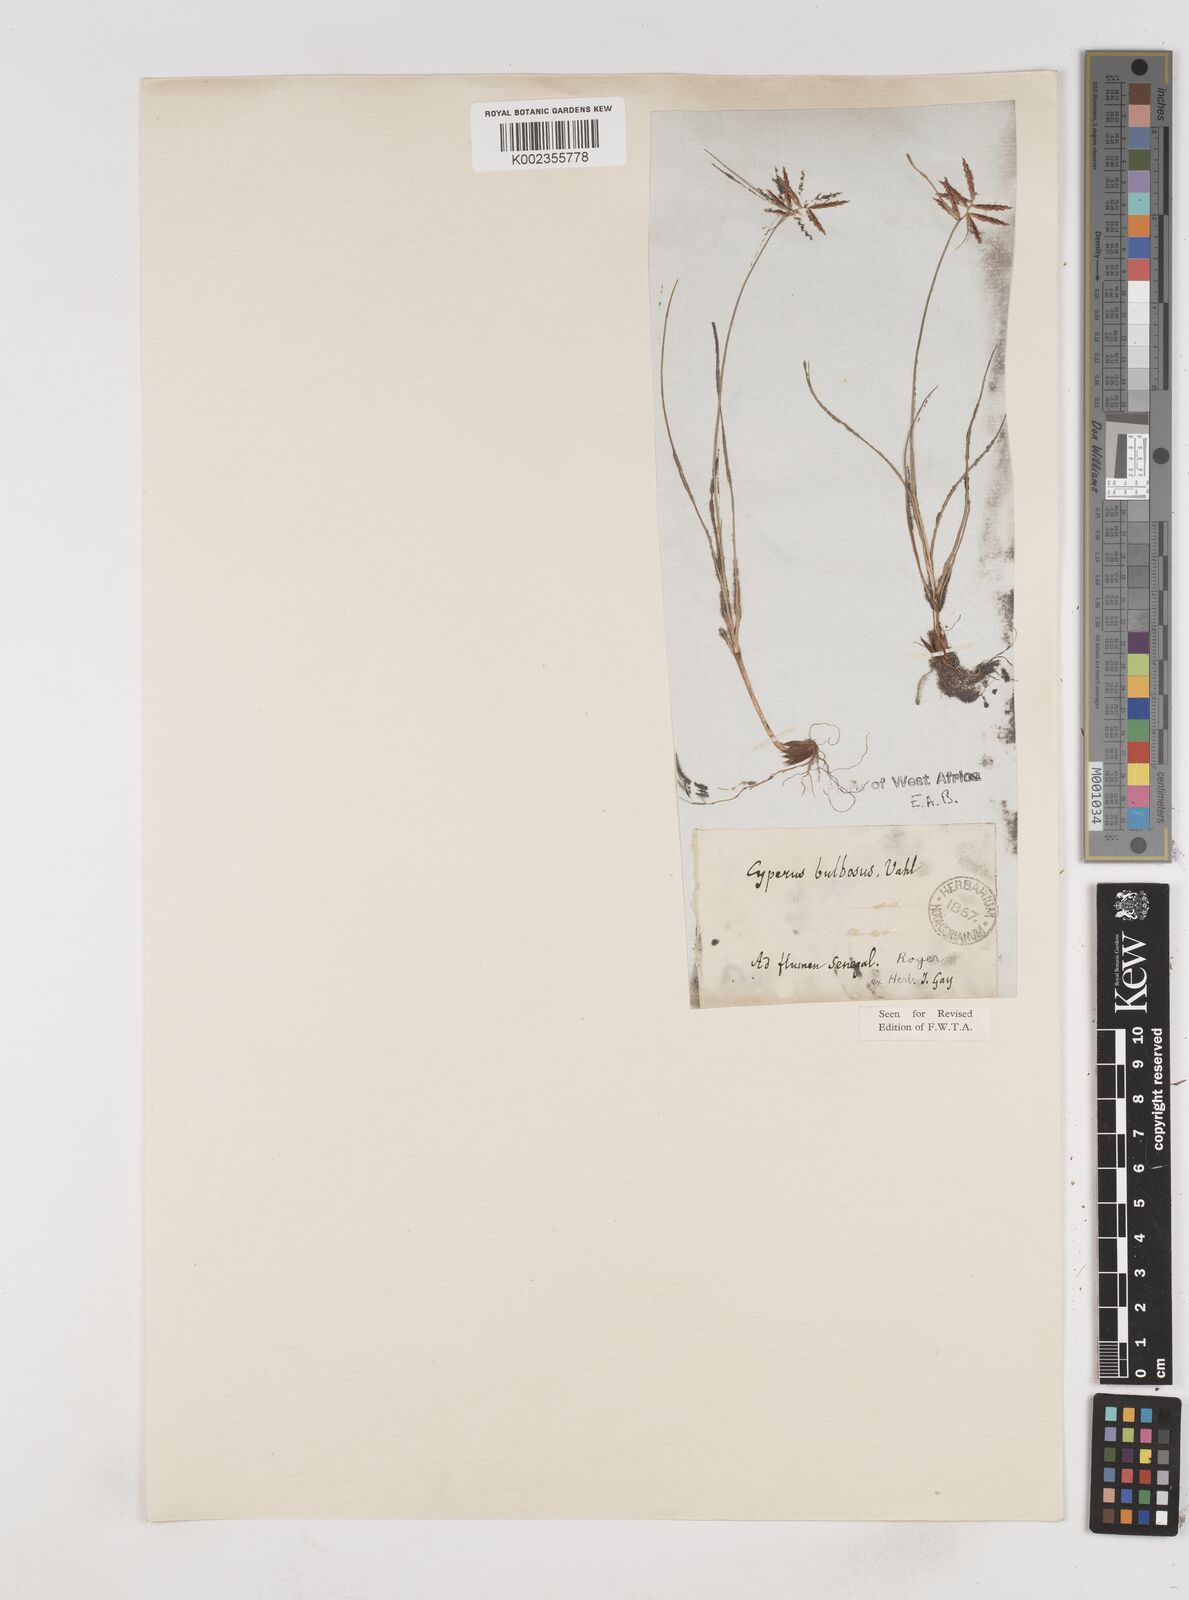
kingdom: Plantae
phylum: Tracheophyta
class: Liliopsida
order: Poales
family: Cyperaceae
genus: Cyperus
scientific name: Cyperus bulbosus
